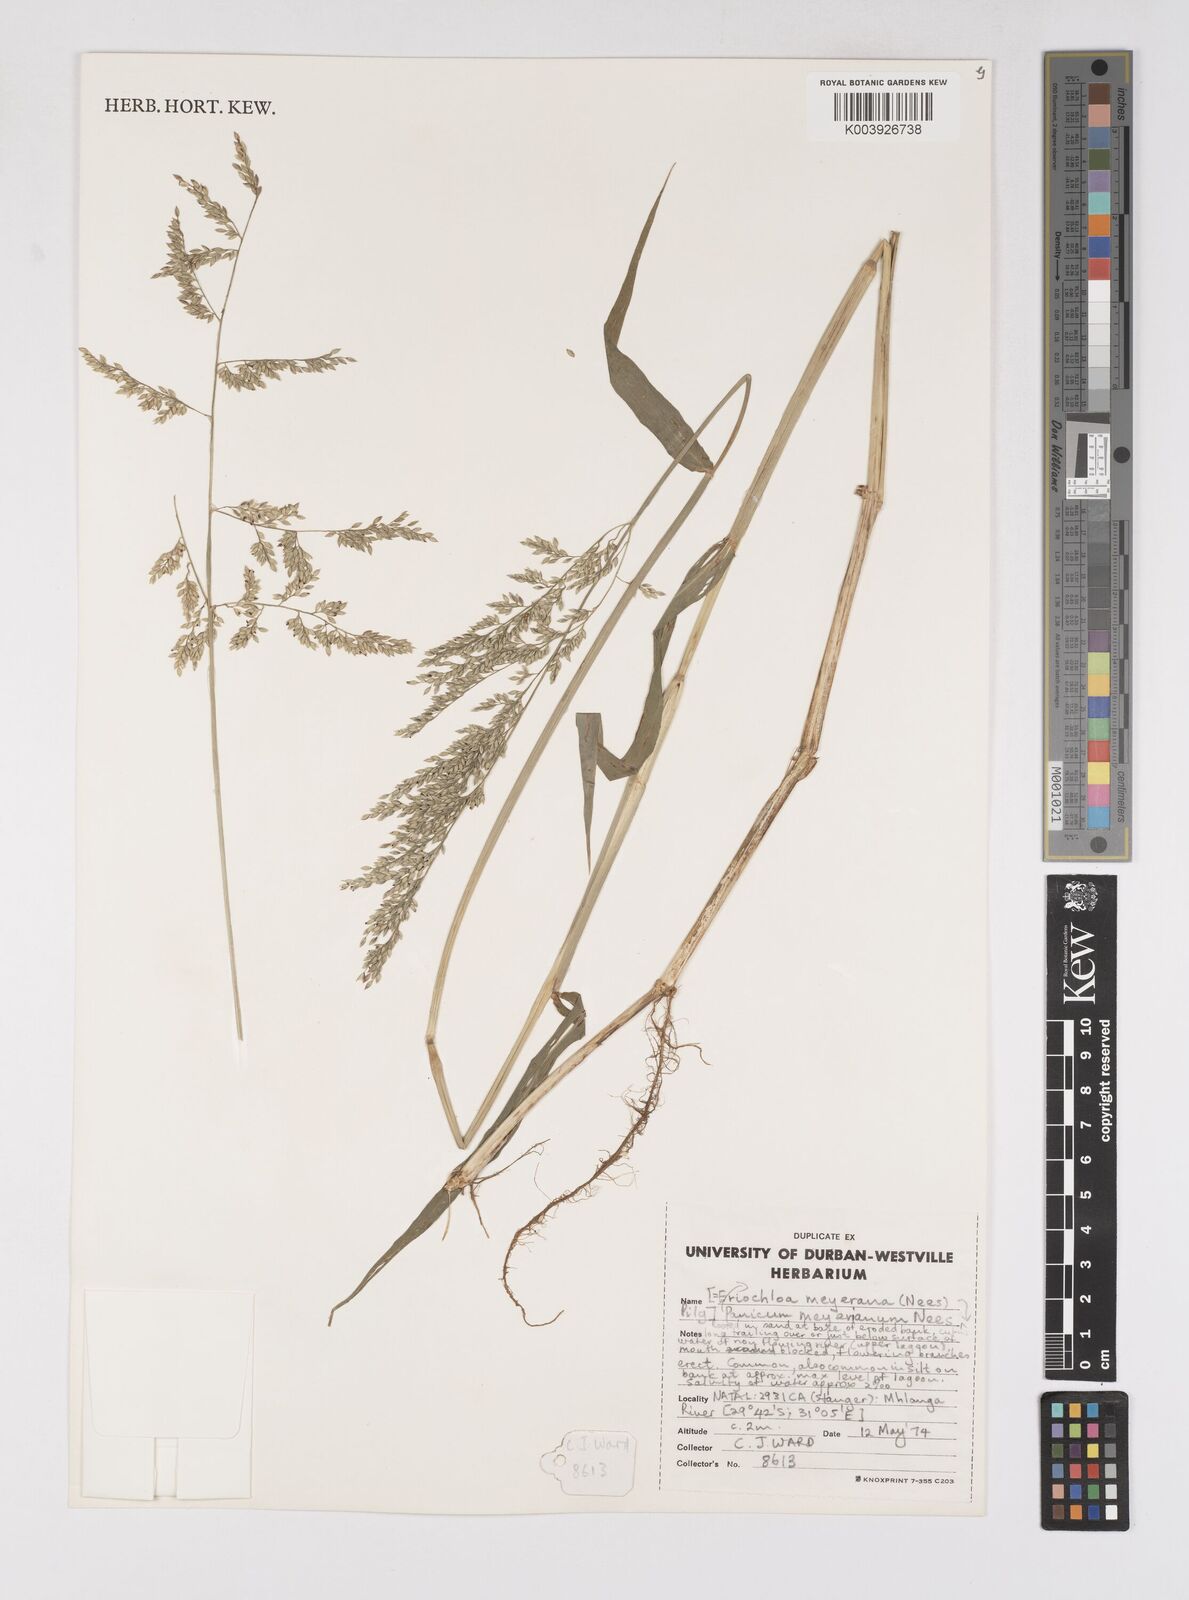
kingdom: Plantae
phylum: Tracheophyta
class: Liliopsida
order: Poales
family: Poaceae
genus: Eriochloa
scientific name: Eriochloa meyeriana
